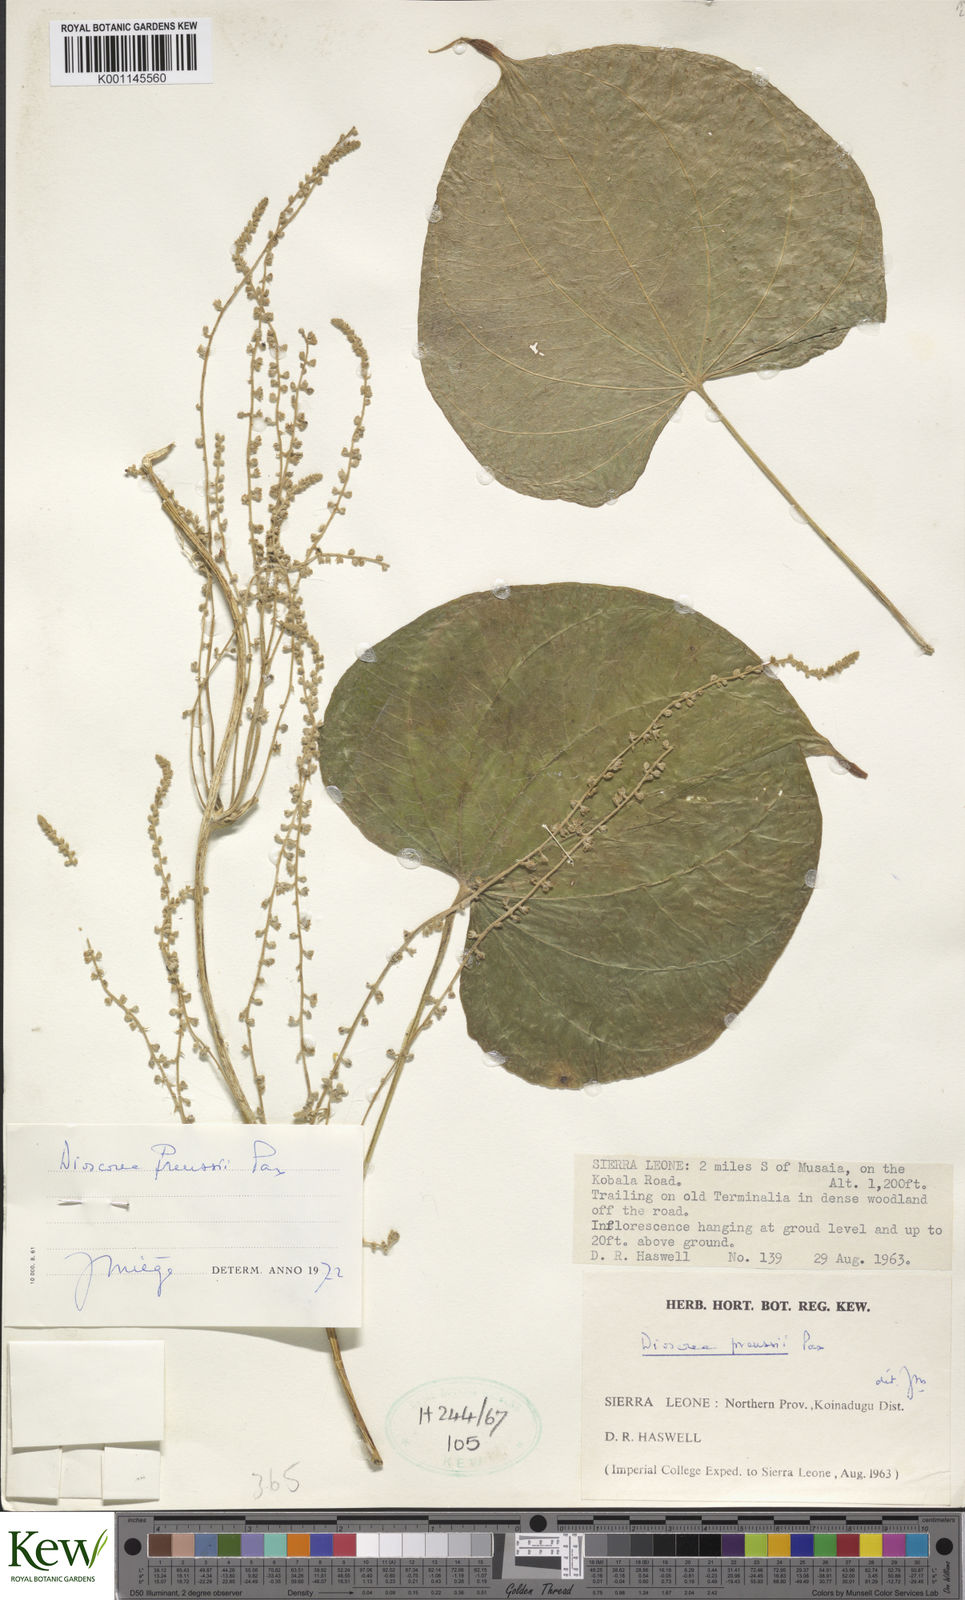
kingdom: Plantae
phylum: Tracheophyta
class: Liliopsida
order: Dioscoreales
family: Dioscoreaceae
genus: Dioscorea
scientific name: Dioscorea preussii
